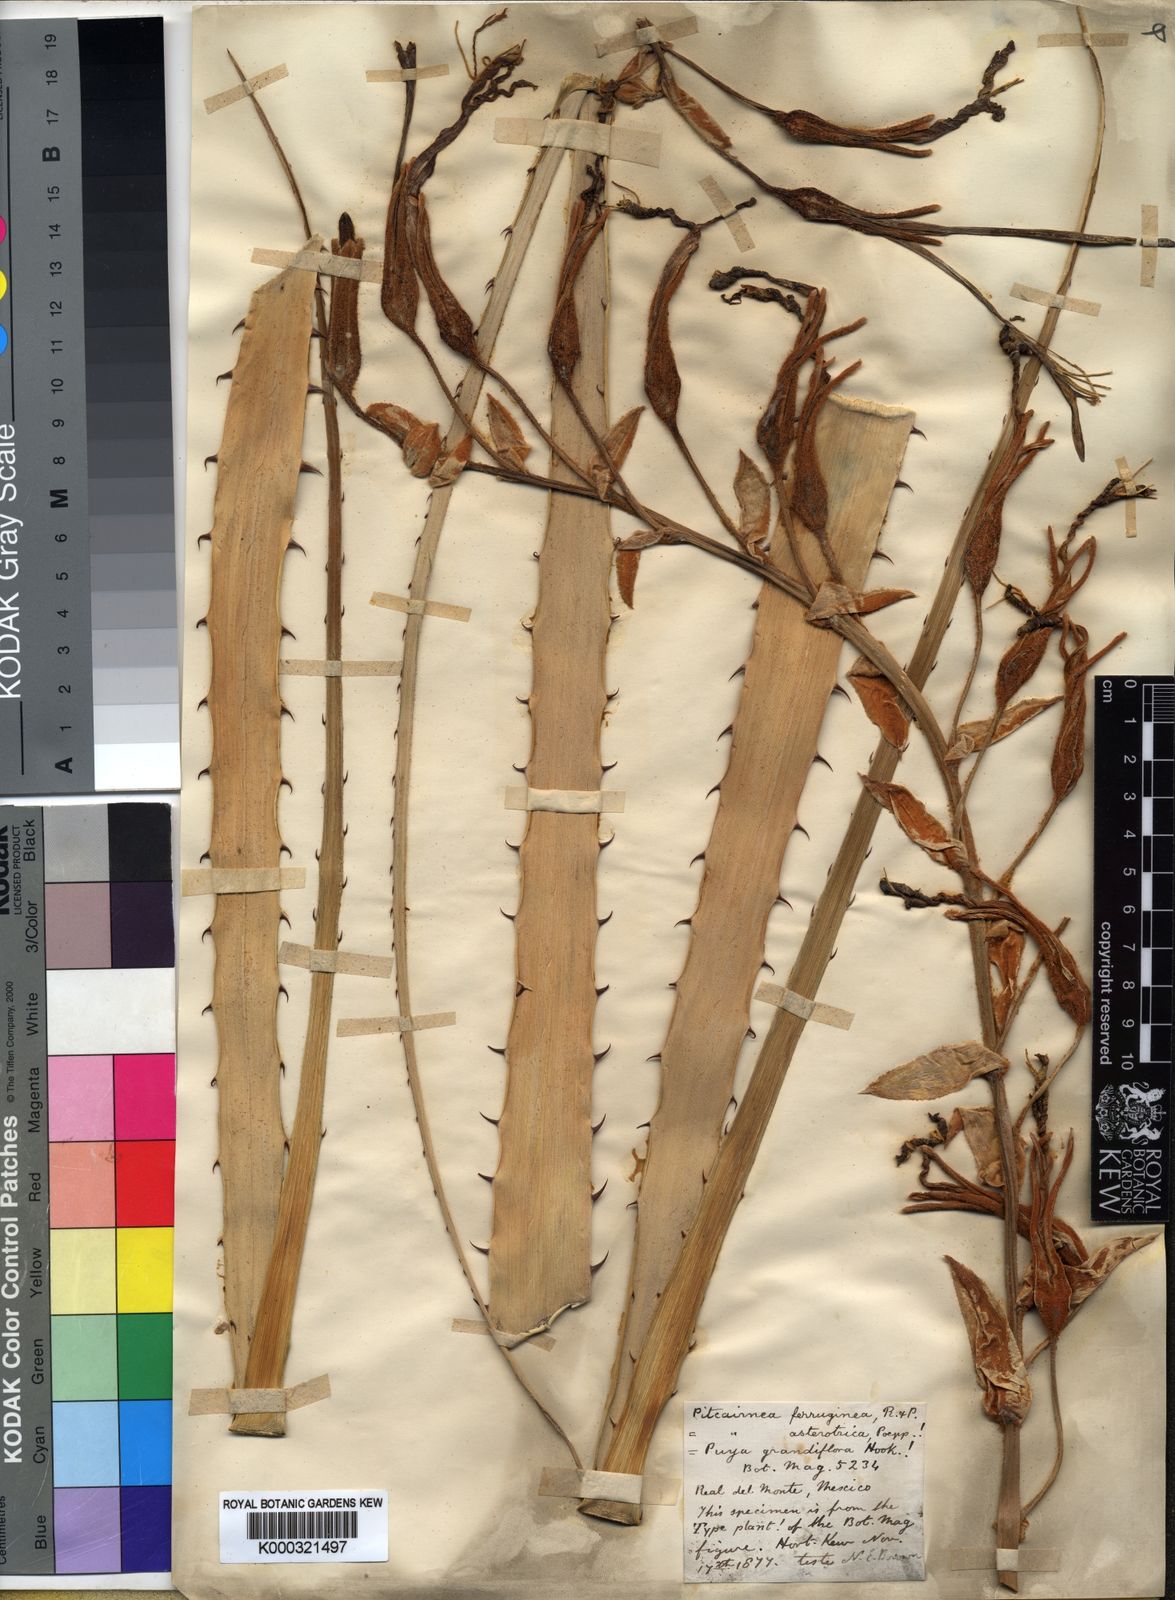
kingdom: Plantae
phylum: Tracheophyta
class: Liliopsida
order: Poales
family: Bromeliaceae
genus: Puya
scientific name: Puya ferruginea
